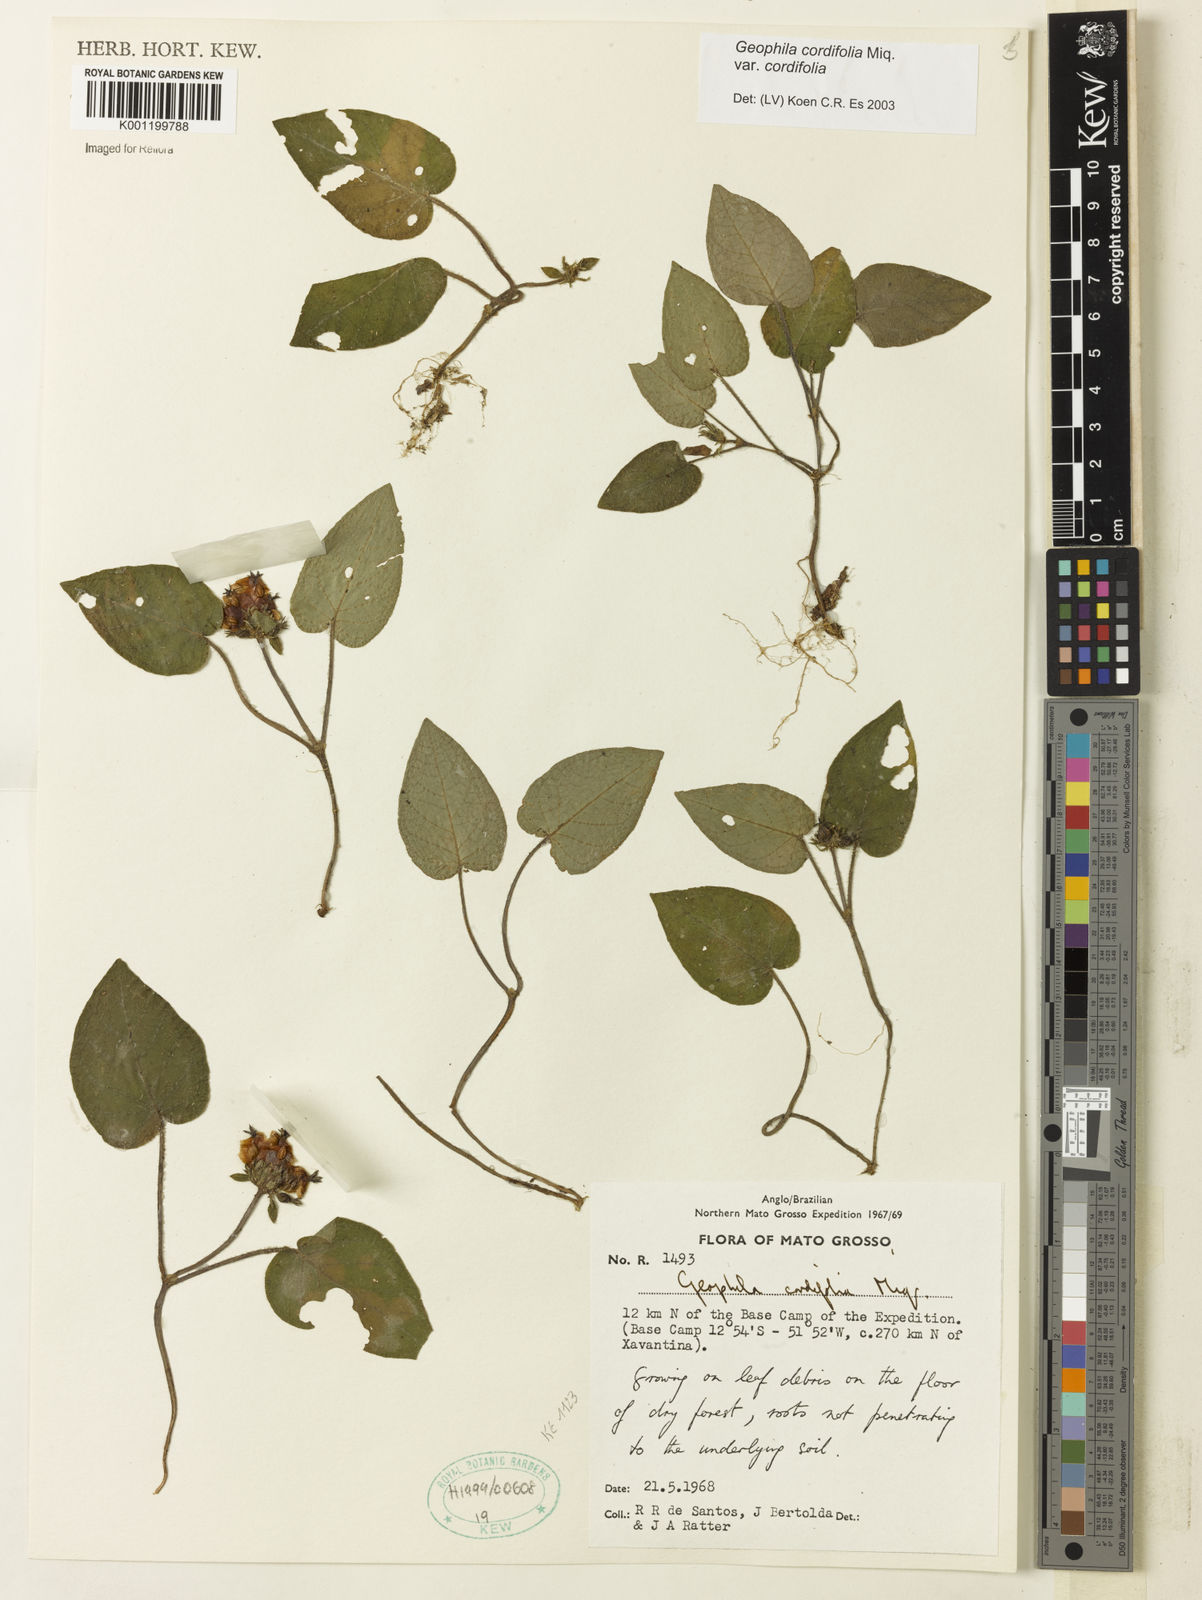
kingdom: Plantae
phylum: Tracheophyta
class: Magnoliopsida
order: Gentianales
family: Rubiaceae
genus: Geophila
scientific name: Geophila cordifolia
